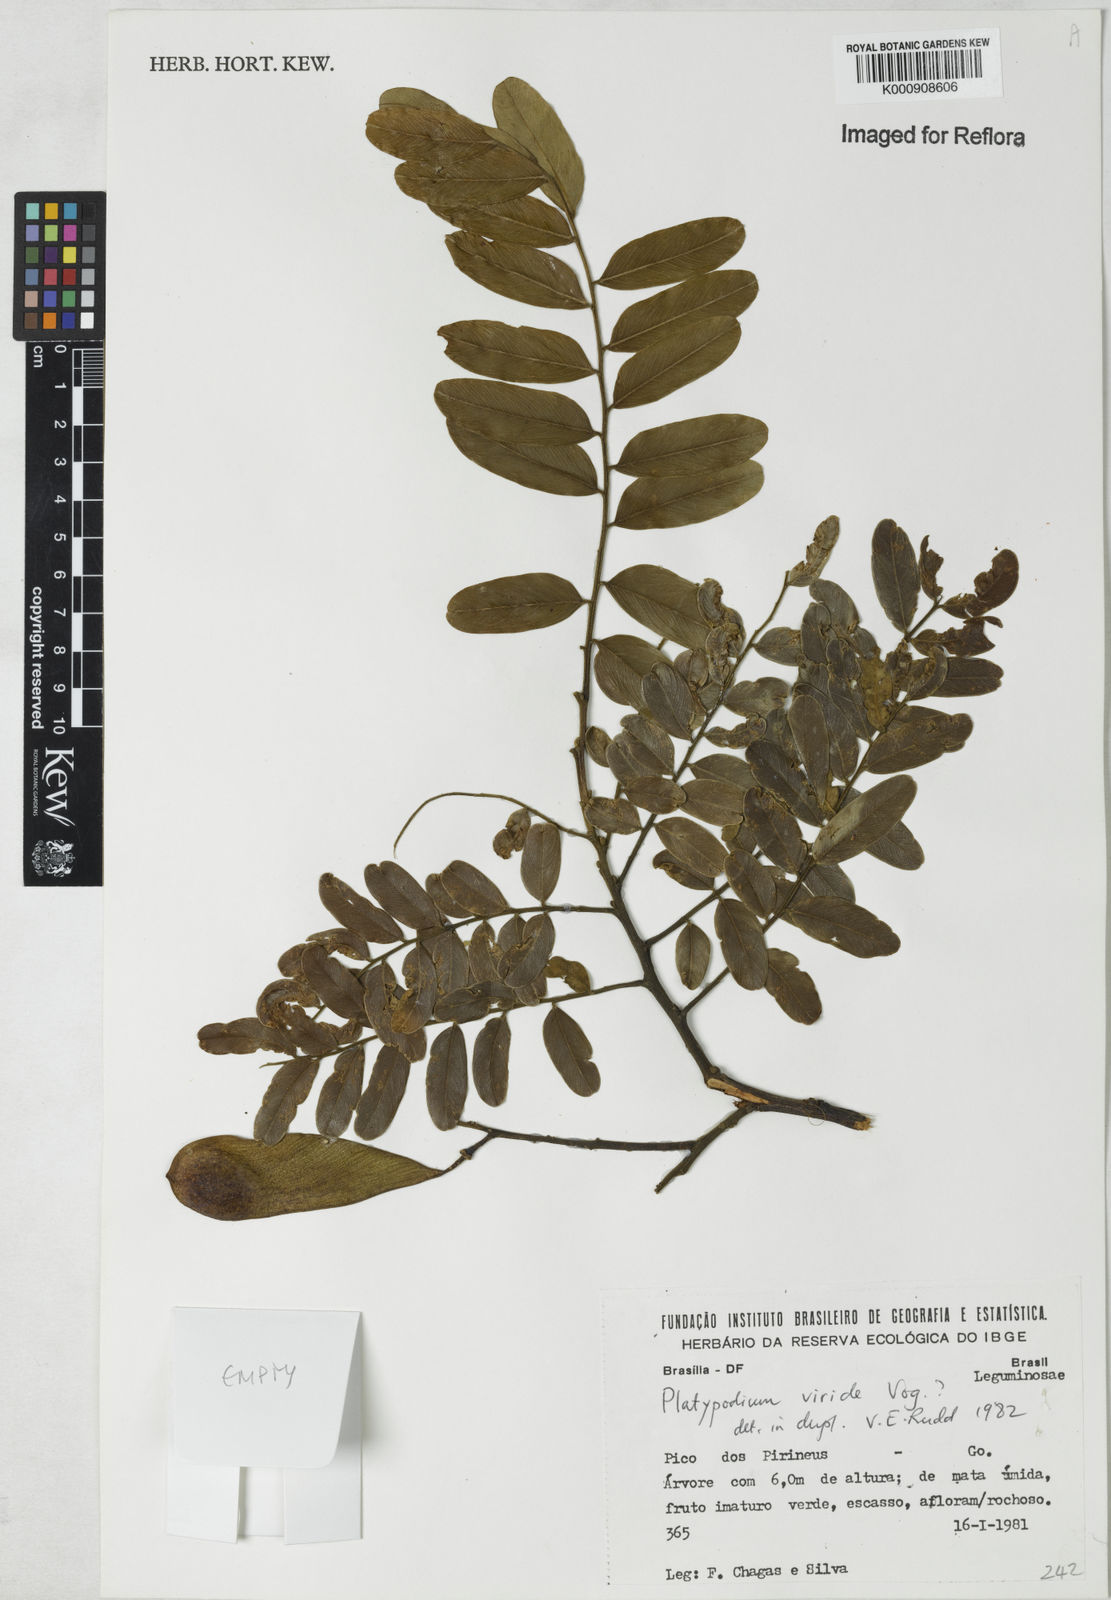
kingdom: Plantae
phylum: Tracheophyta
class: Magnoliopsida
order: Fabales
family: Fabaceae
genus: Platypodium
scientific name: Platypodium viride
